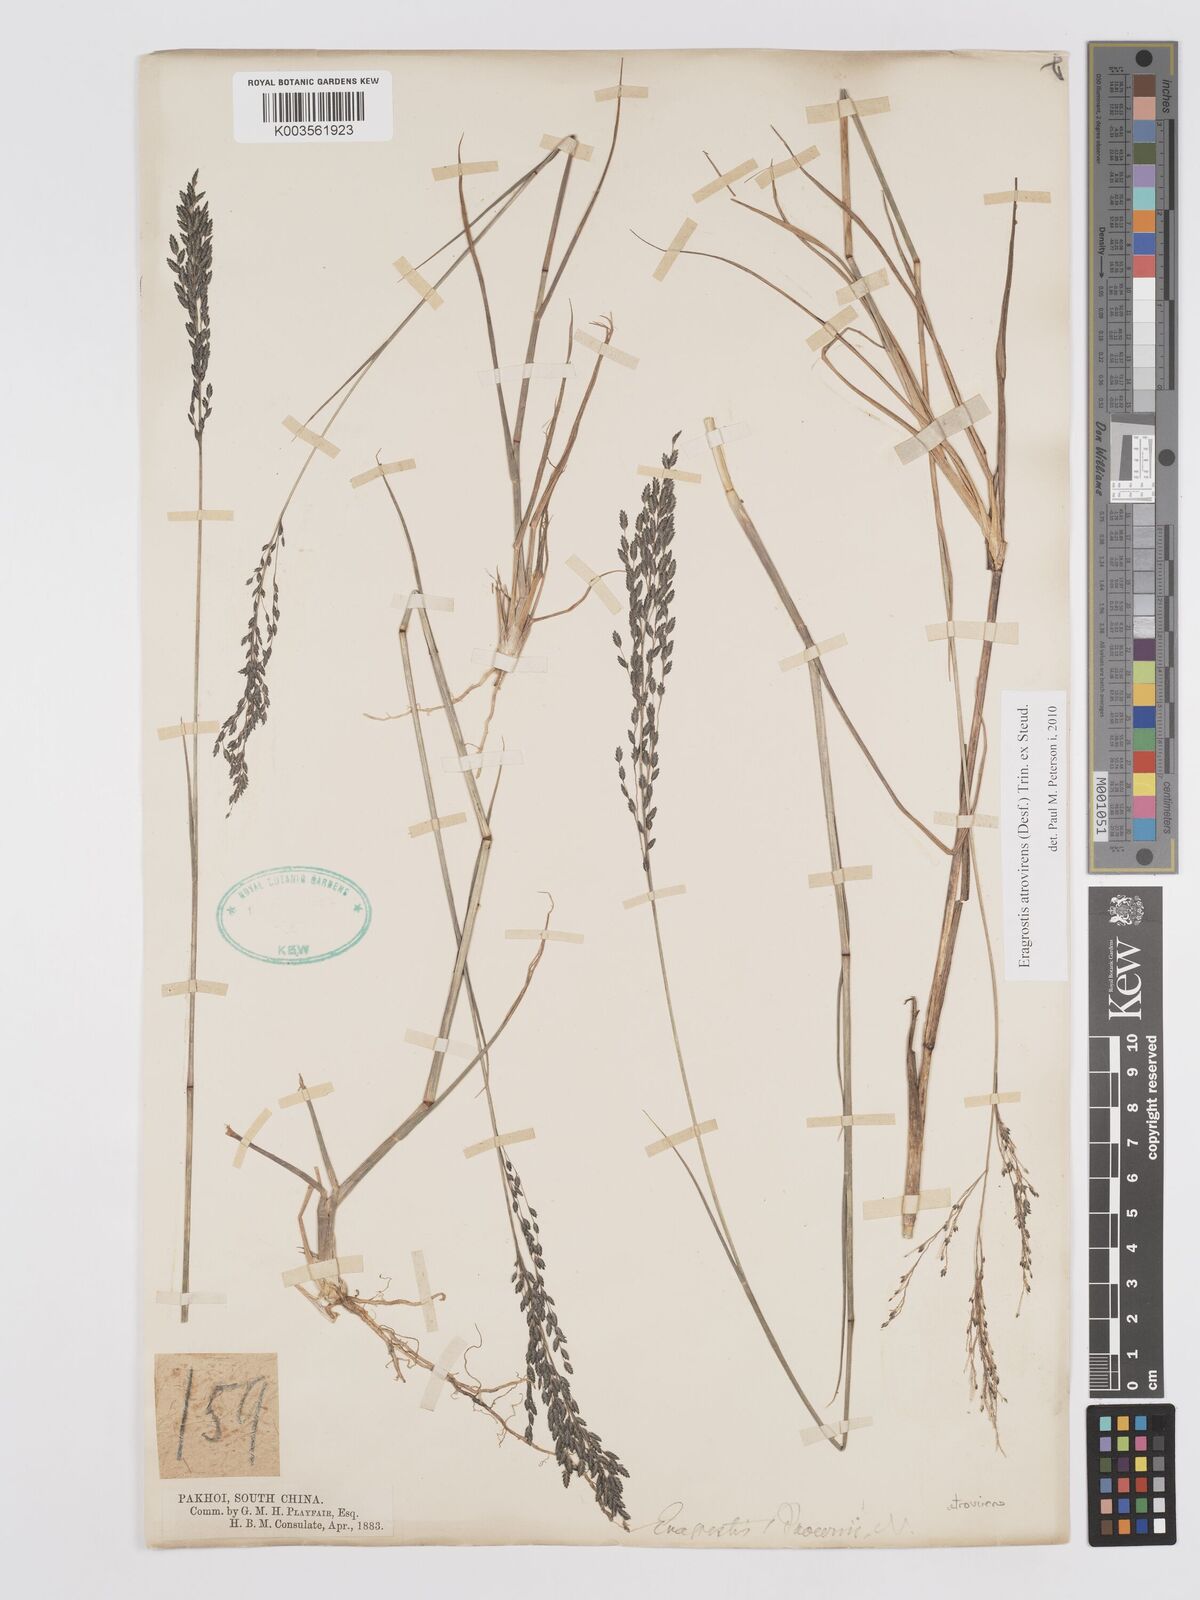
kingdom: Plantae
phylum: Tracheophyta
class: Liliopsida
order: Poales
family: Poaceae
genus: Eragrostis
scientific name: Eragrostis atrovirens
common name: Thalia lovegrass
